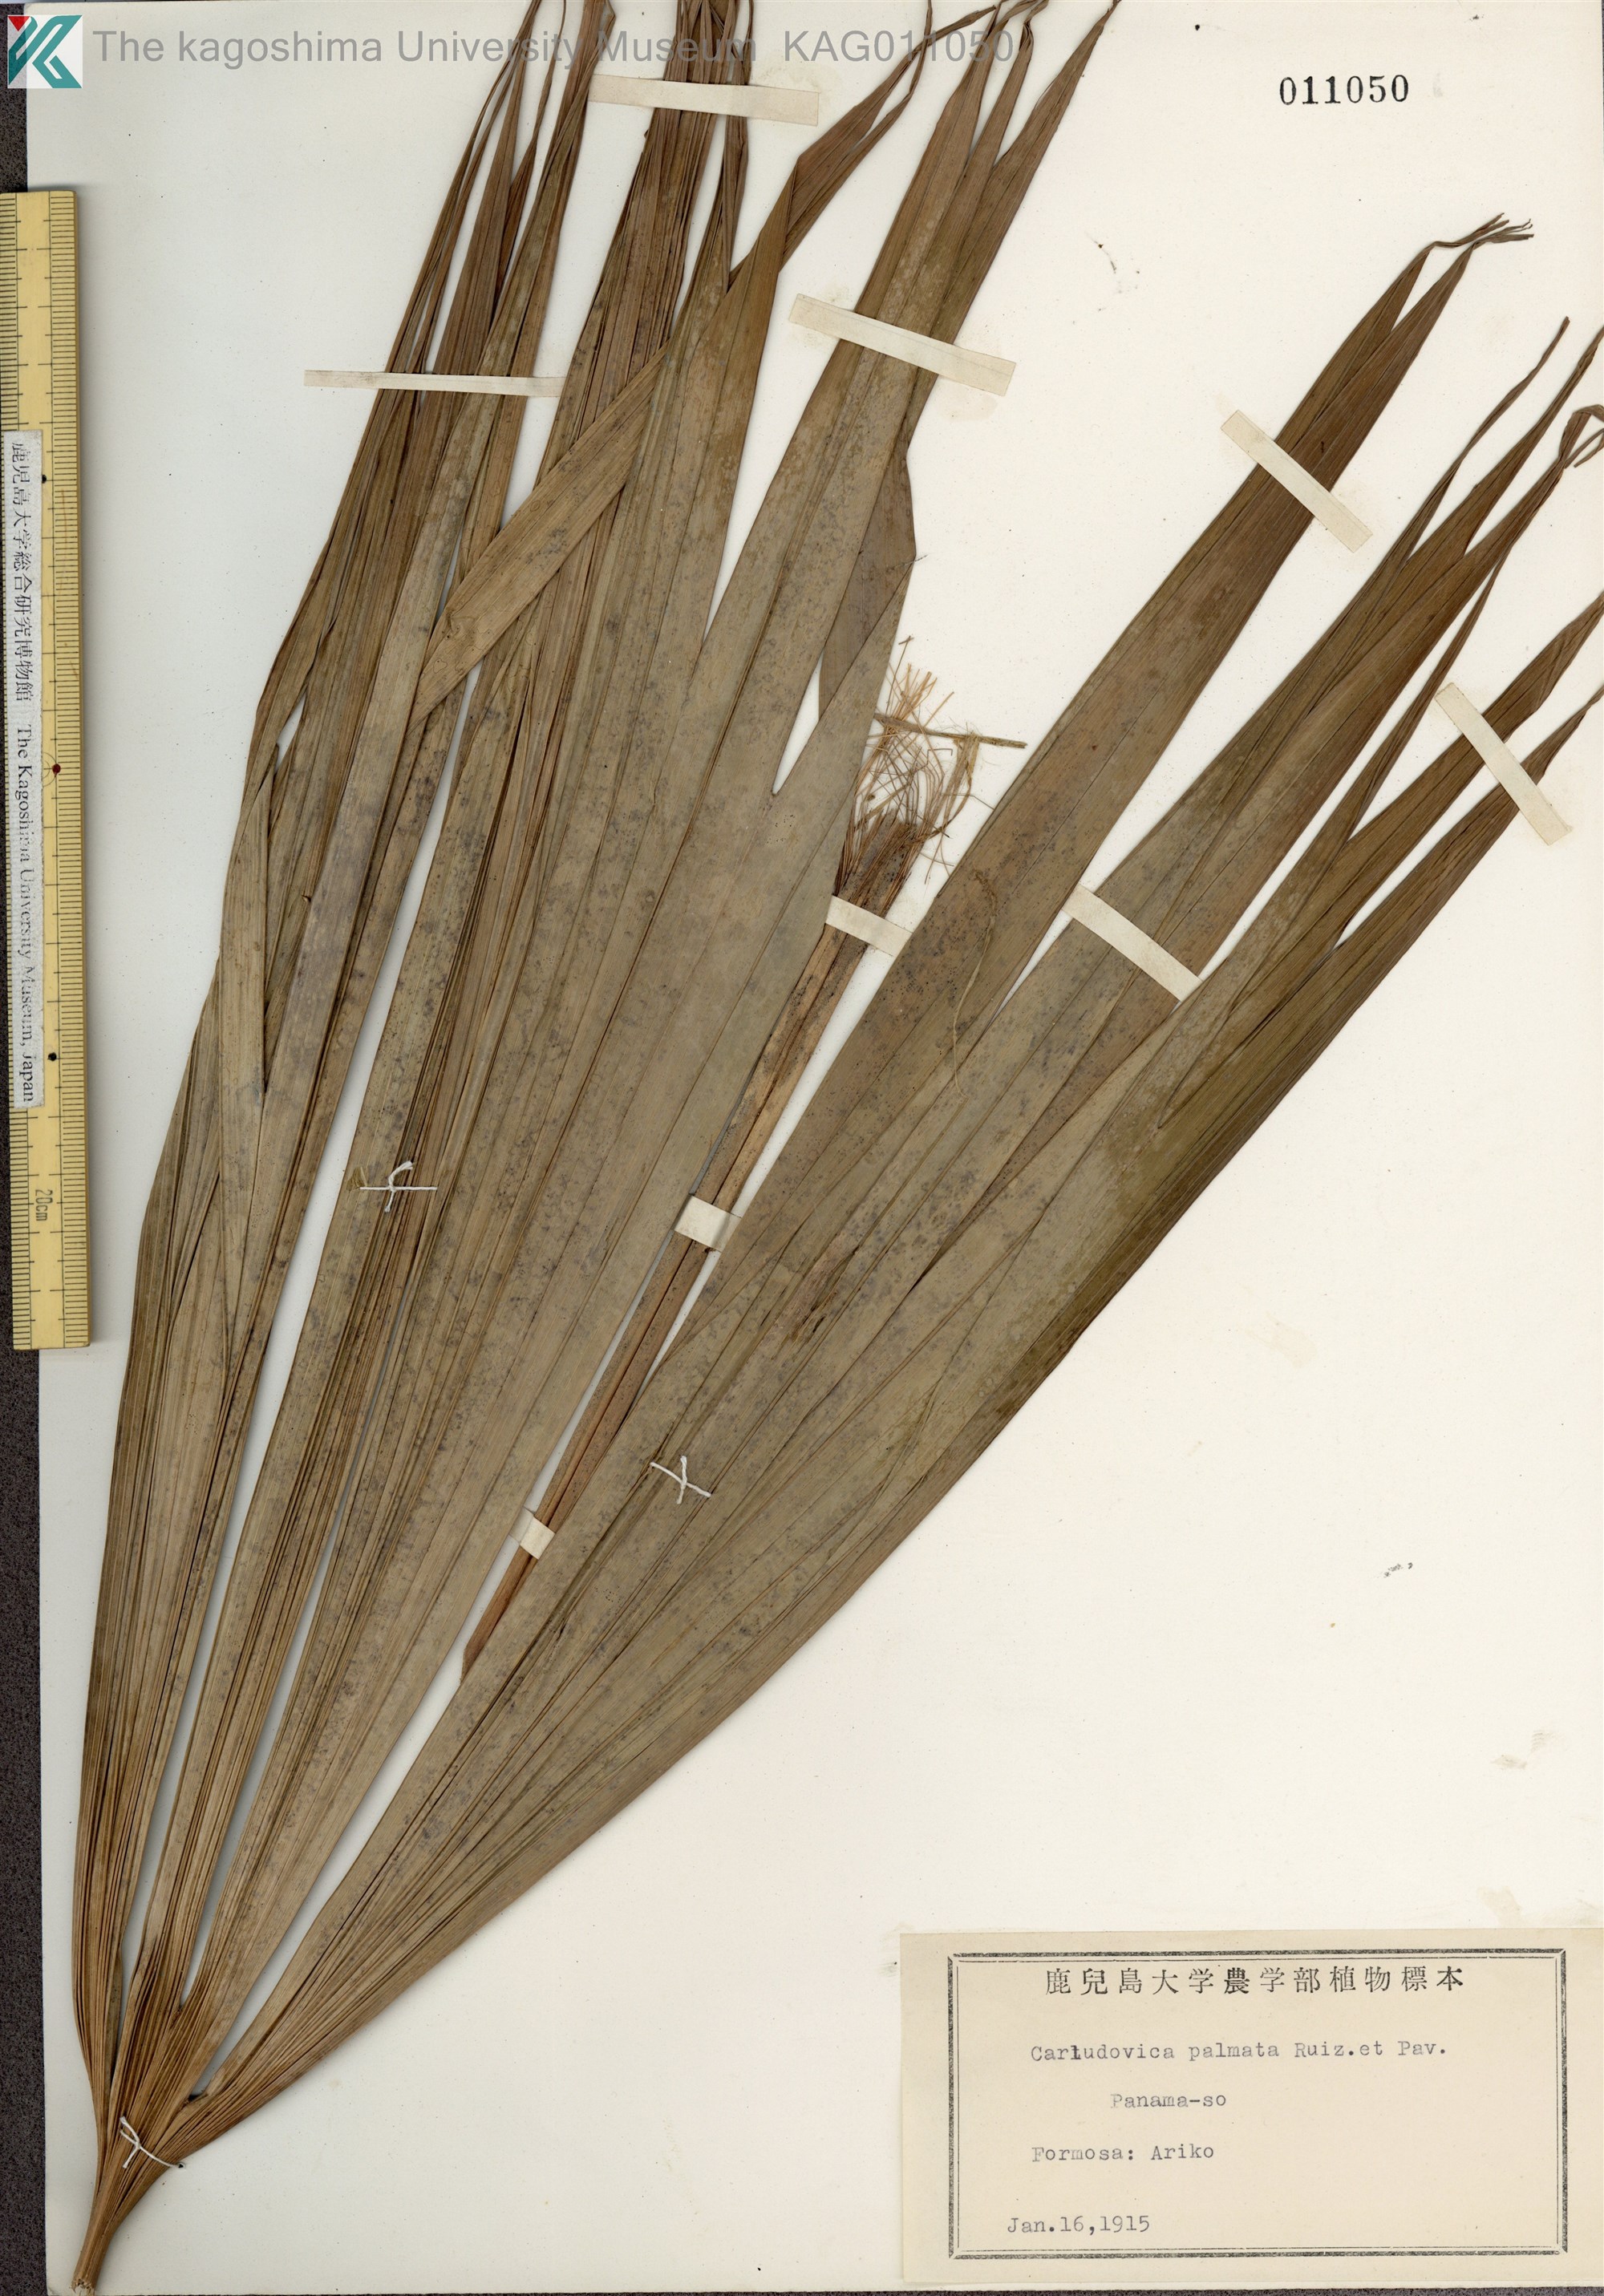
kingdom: Plantae
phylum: Tracheophyta
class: Liliopsida
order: Pandanales
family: Cyclanthaceae
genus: Carludovica
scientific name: Carludovica palmata
